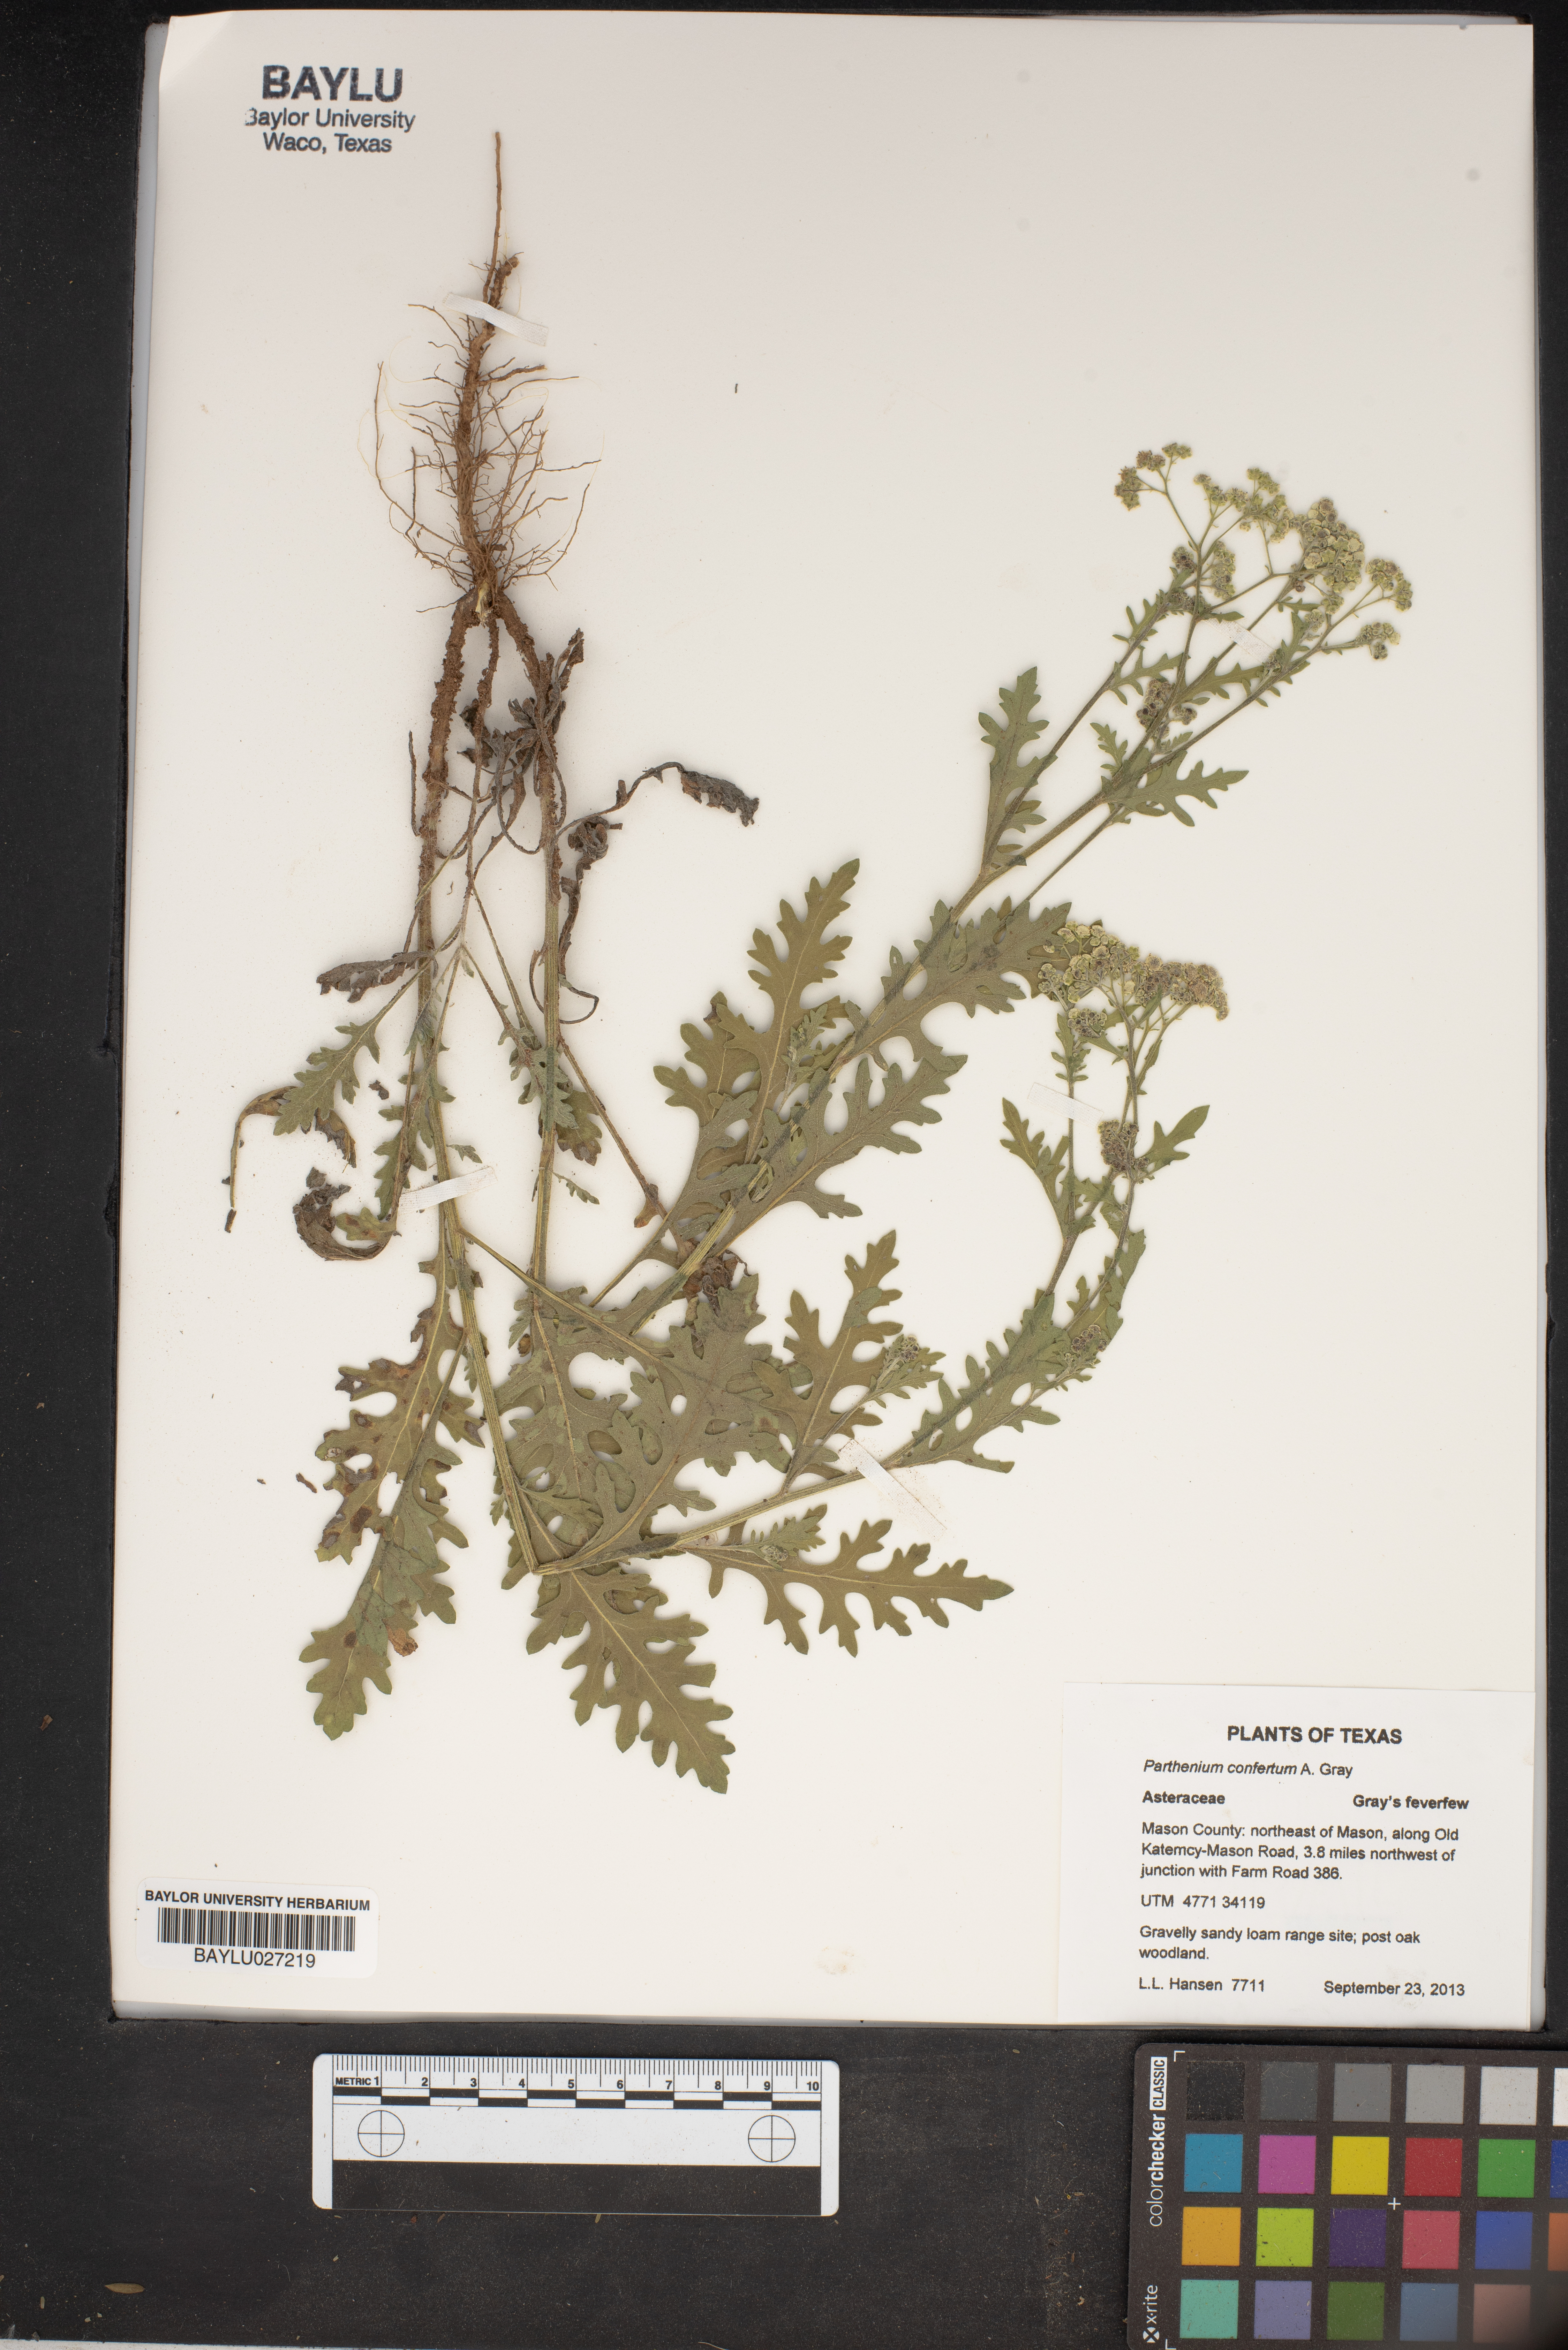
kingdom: Plantae
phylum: Tracheophyta
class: Magnoliopsida
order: Asterales
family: Asteraceae
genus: Parthenium
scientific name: Parthenium confertum
